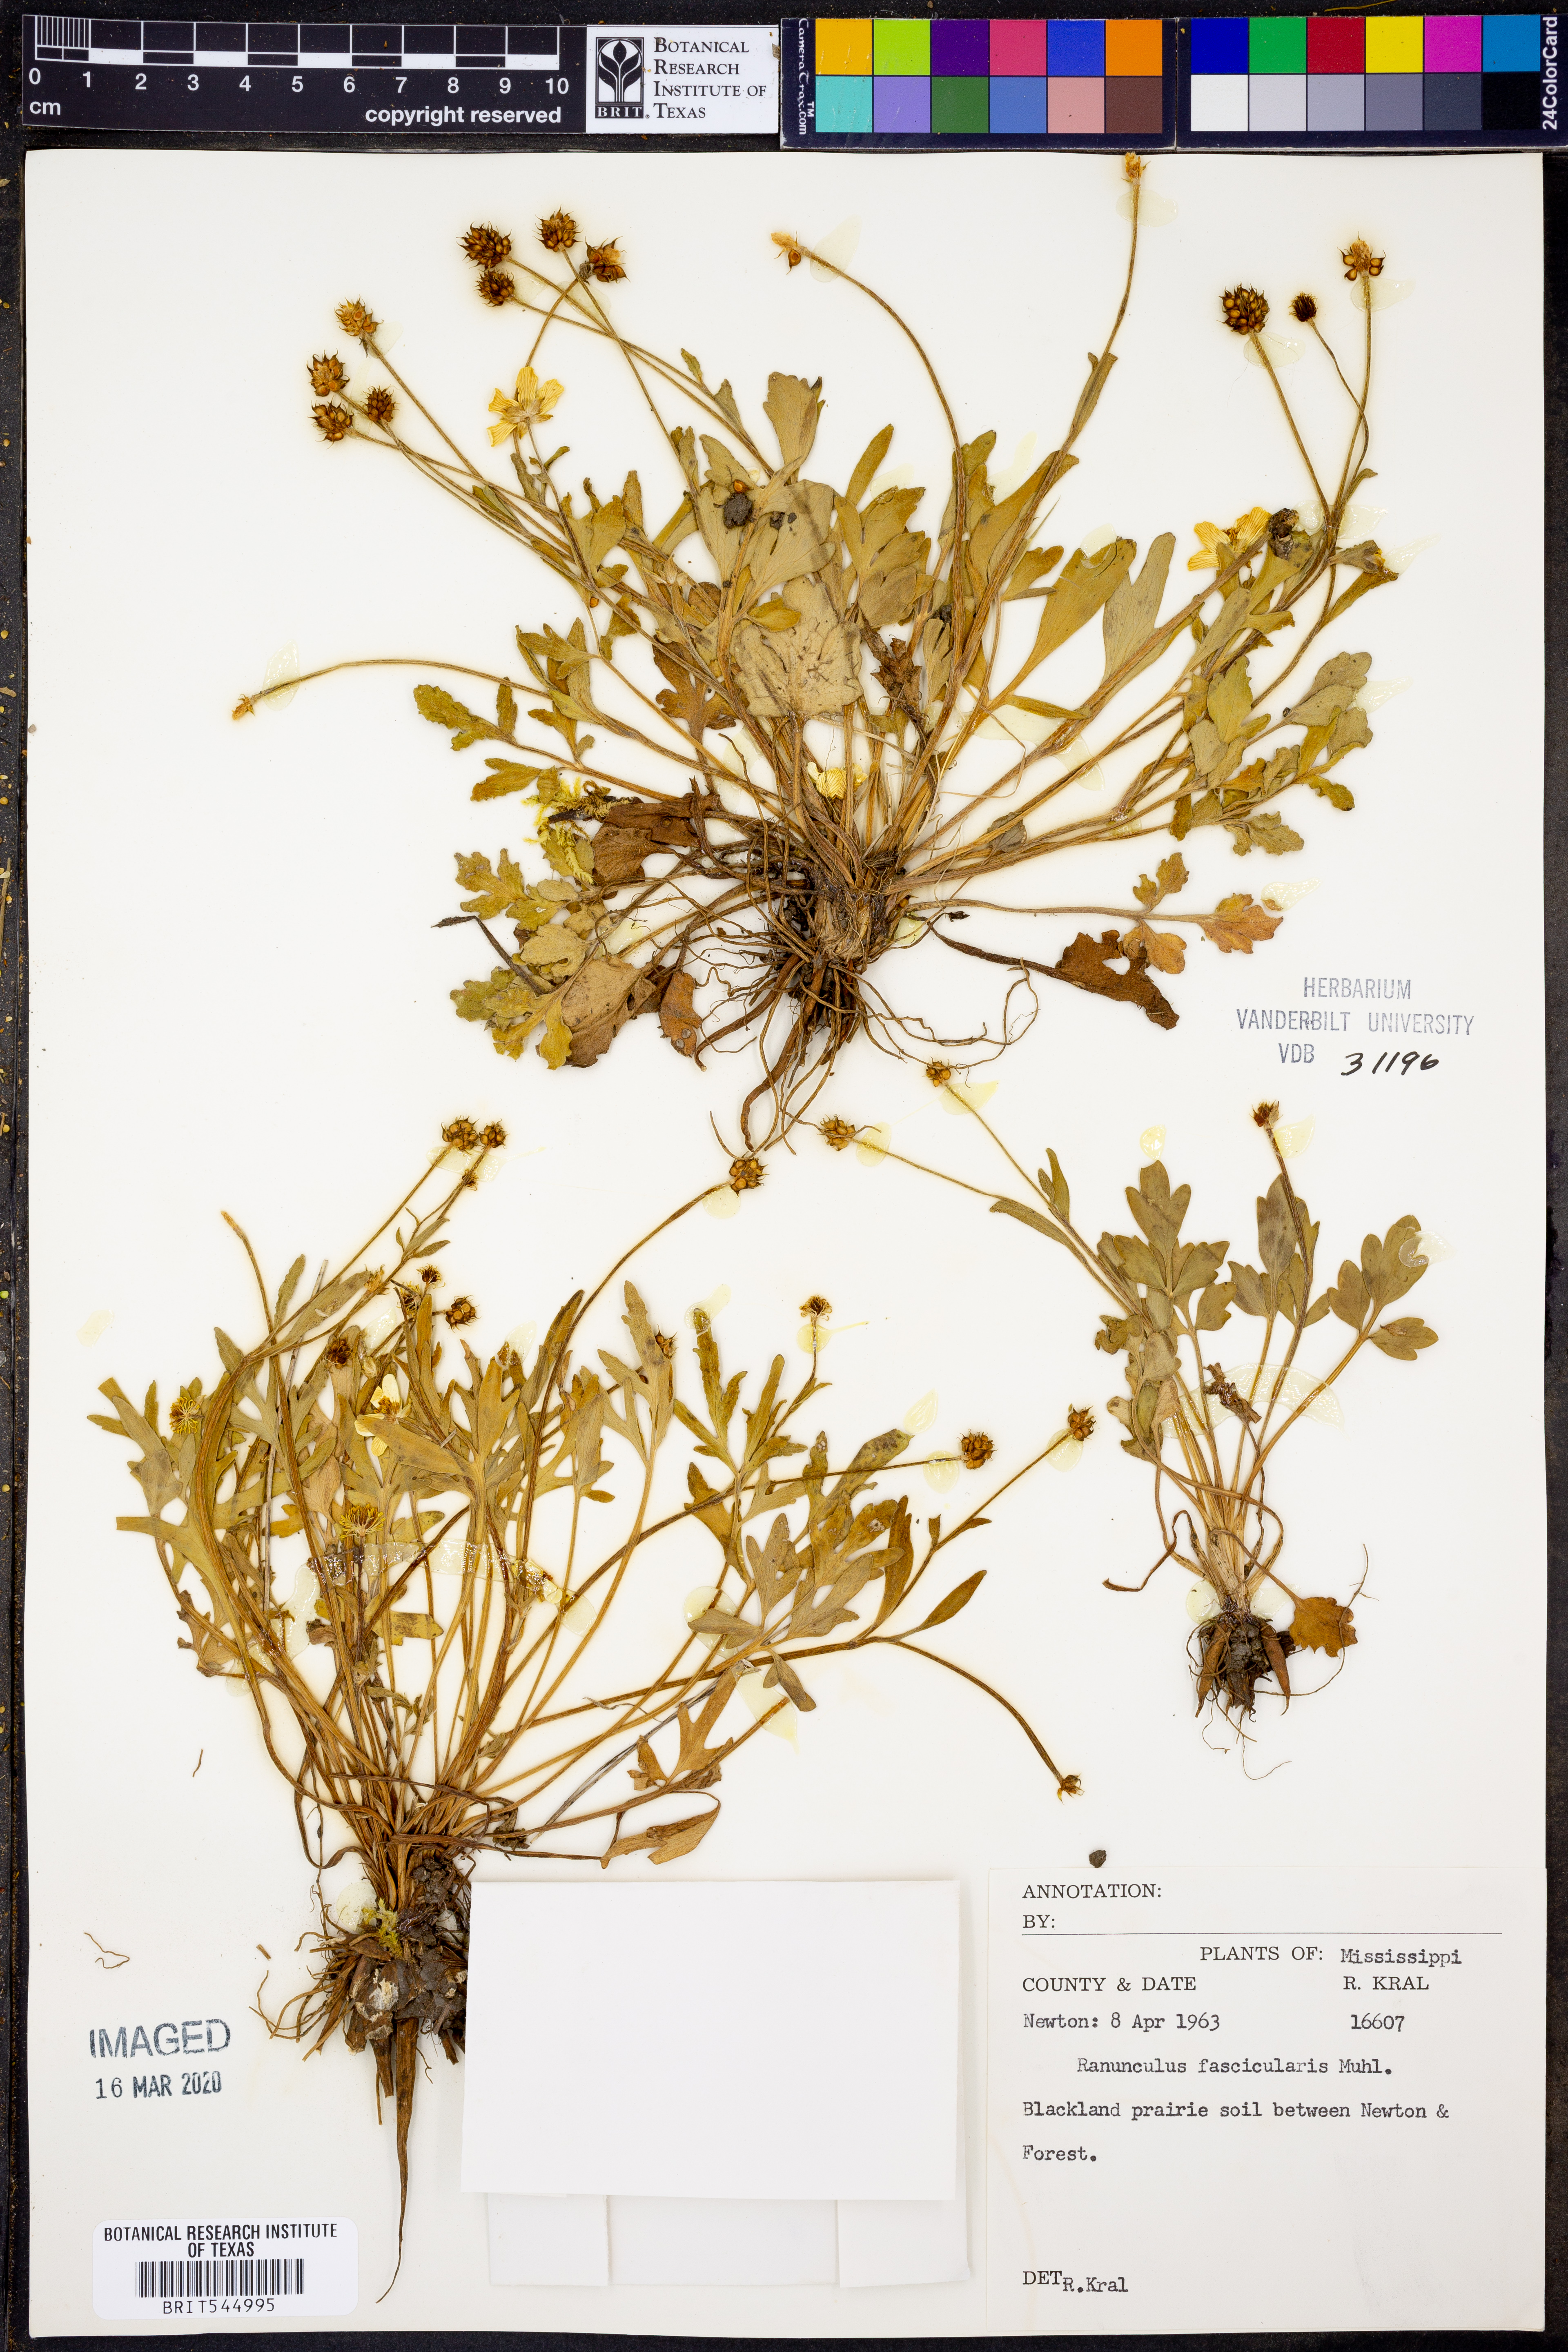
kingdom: Plantae
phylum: Tracheophyta
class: Magnoliopsida
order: Ranunculales
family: Ranunculaceae
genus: Ranunculus
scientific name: Ranunculus fascicularis
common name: Early buttercup
